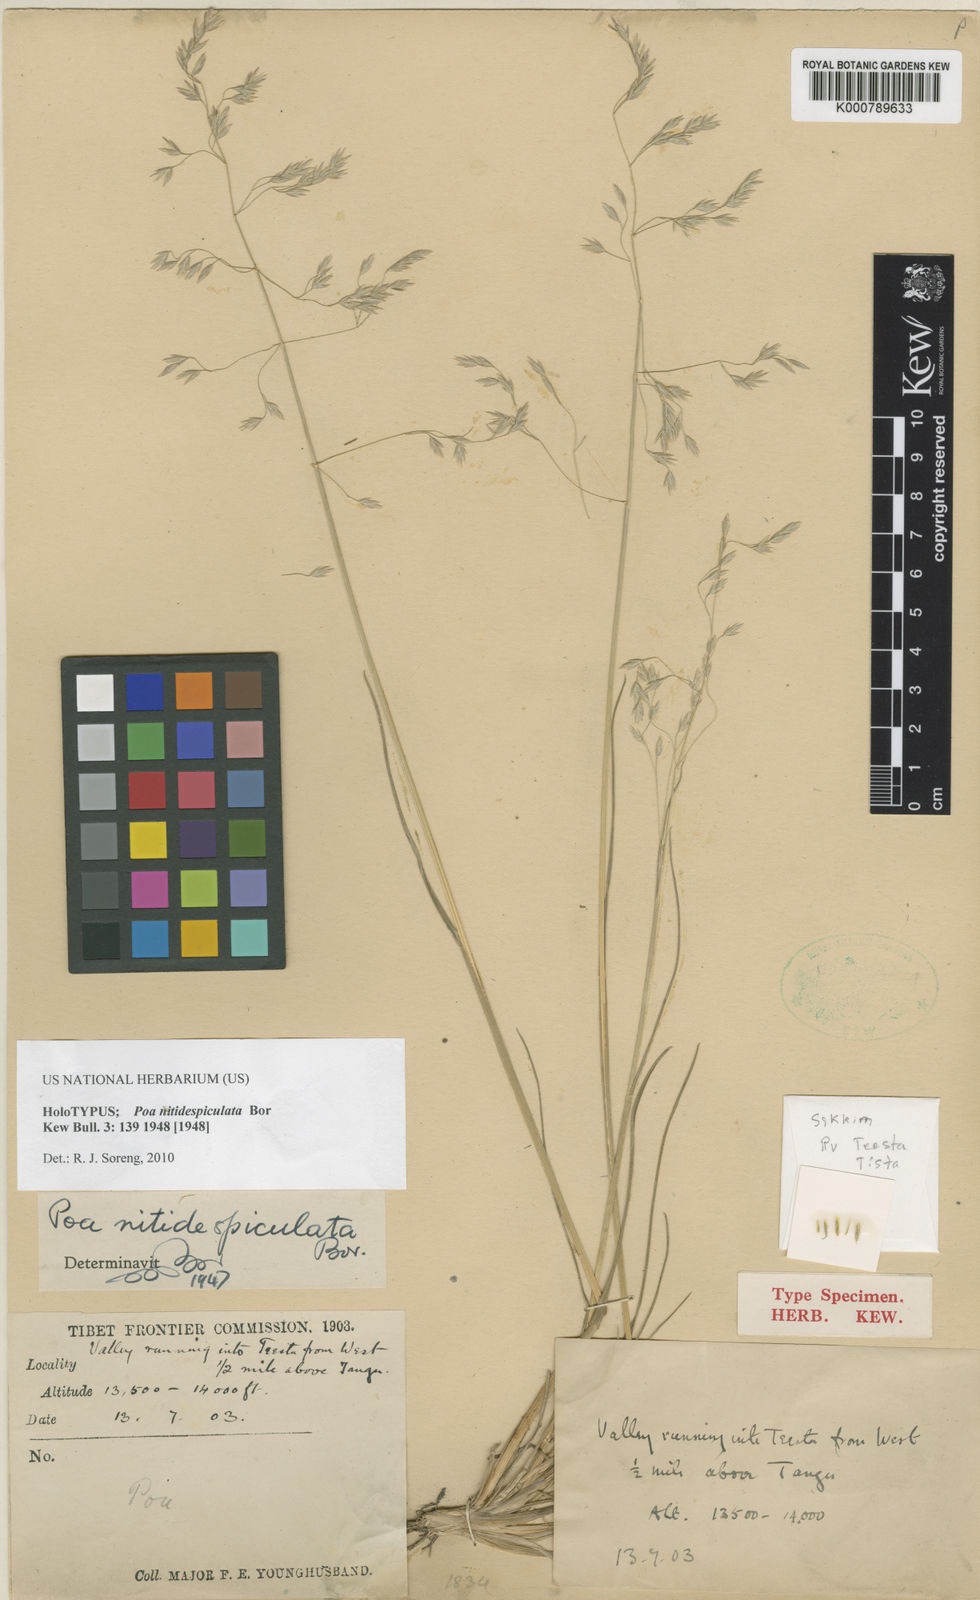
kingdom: Plantae
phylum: Tracheophyta
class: Liliopsida
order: Poales
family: Poaceae
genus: Poa
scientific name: Poa nitidespiculata
